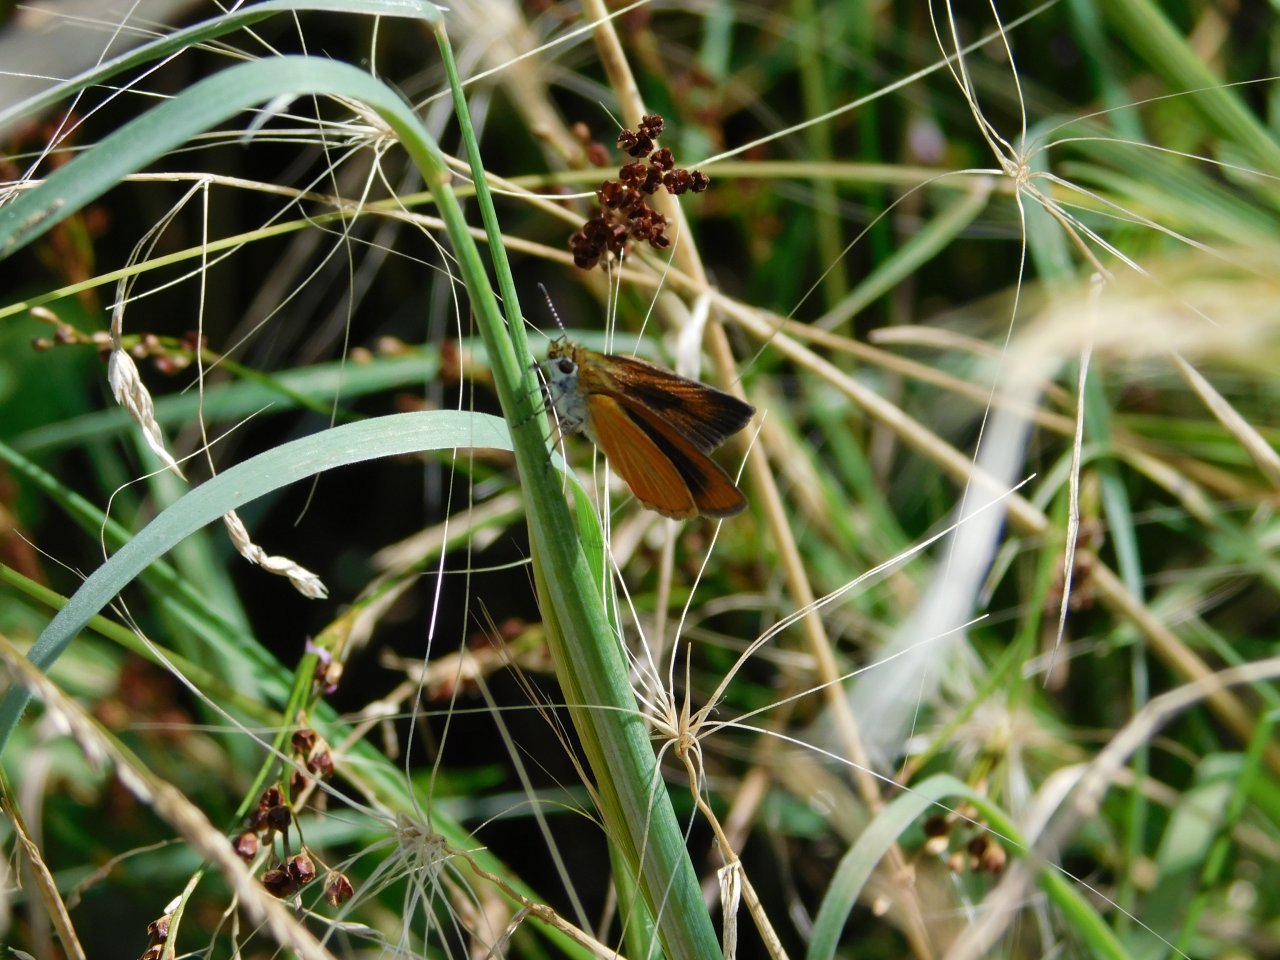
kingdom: Animalia
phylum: Arthropoda
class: Insecta
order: Lepidoptera
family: Hesperiidae
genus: Ancyloxypha
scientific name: Ancyloxypha numitor
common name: Least Skipper
